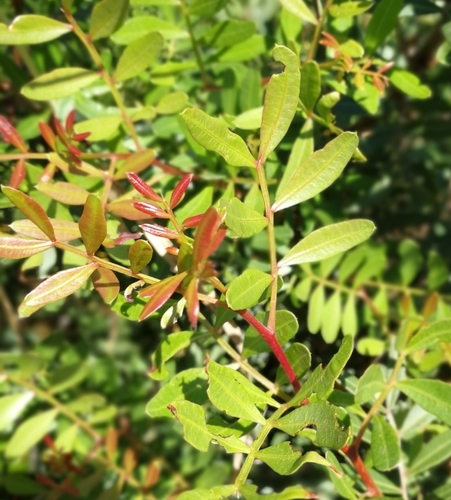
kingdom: Plantae
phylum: Tracheophyta
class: Magnoliopsida
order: Sapindales
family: Anacardiaceae
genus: Pistacia
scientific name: Pistacia lentiscus
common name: Lentisk
